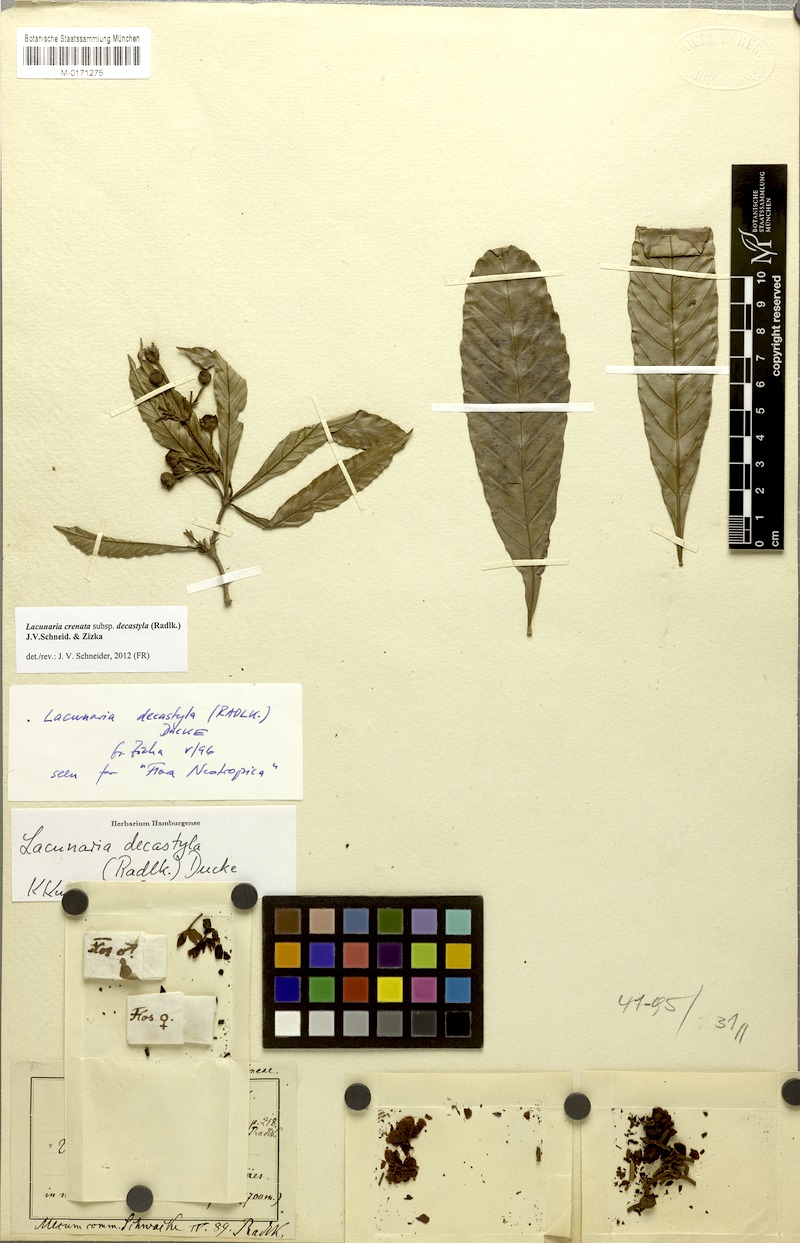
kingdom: Plantae
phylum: Tracheophyta
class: Magnoliopsida
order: Malpighiales
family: Quiinaceae
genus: Lacunaria
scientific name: Lacunaria crenata
